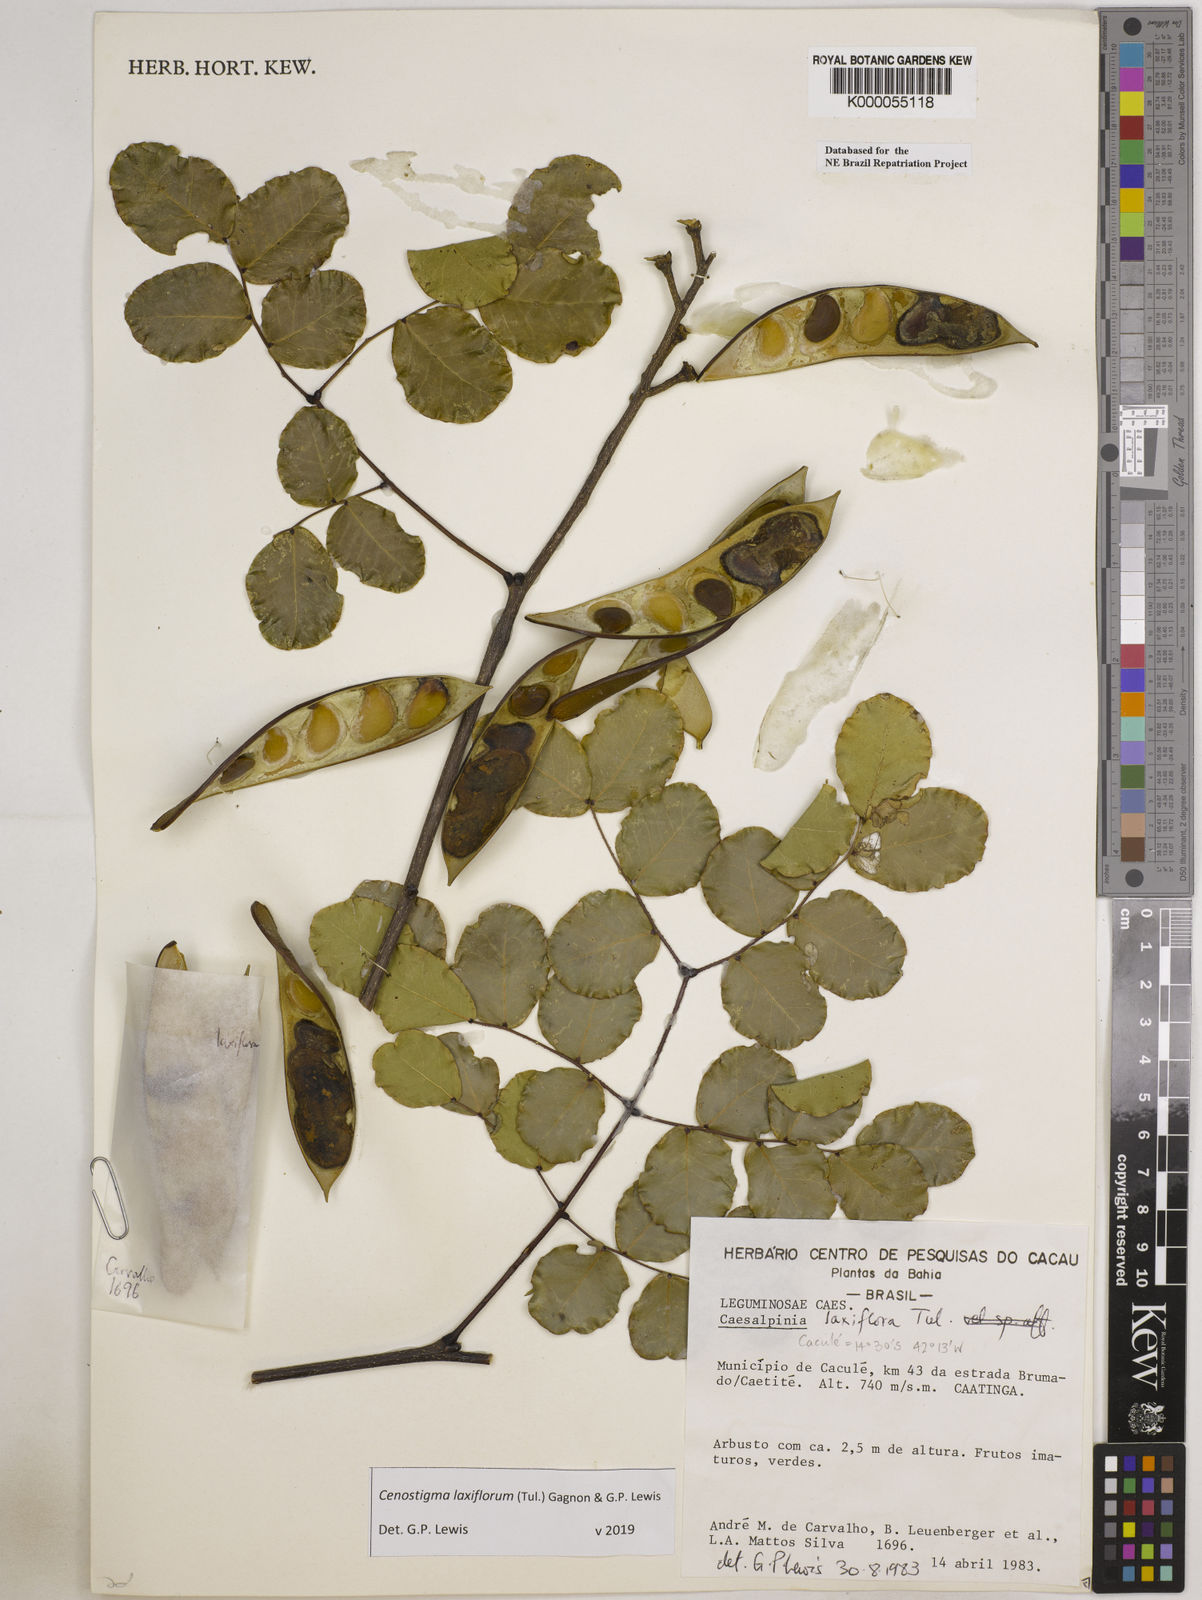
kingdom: Plantae
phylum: Tracheophyta
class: Magnoliopsida
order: Fabales
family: Fabaceae
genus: Cenostigma
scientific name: Cenostigma laxiflorum
